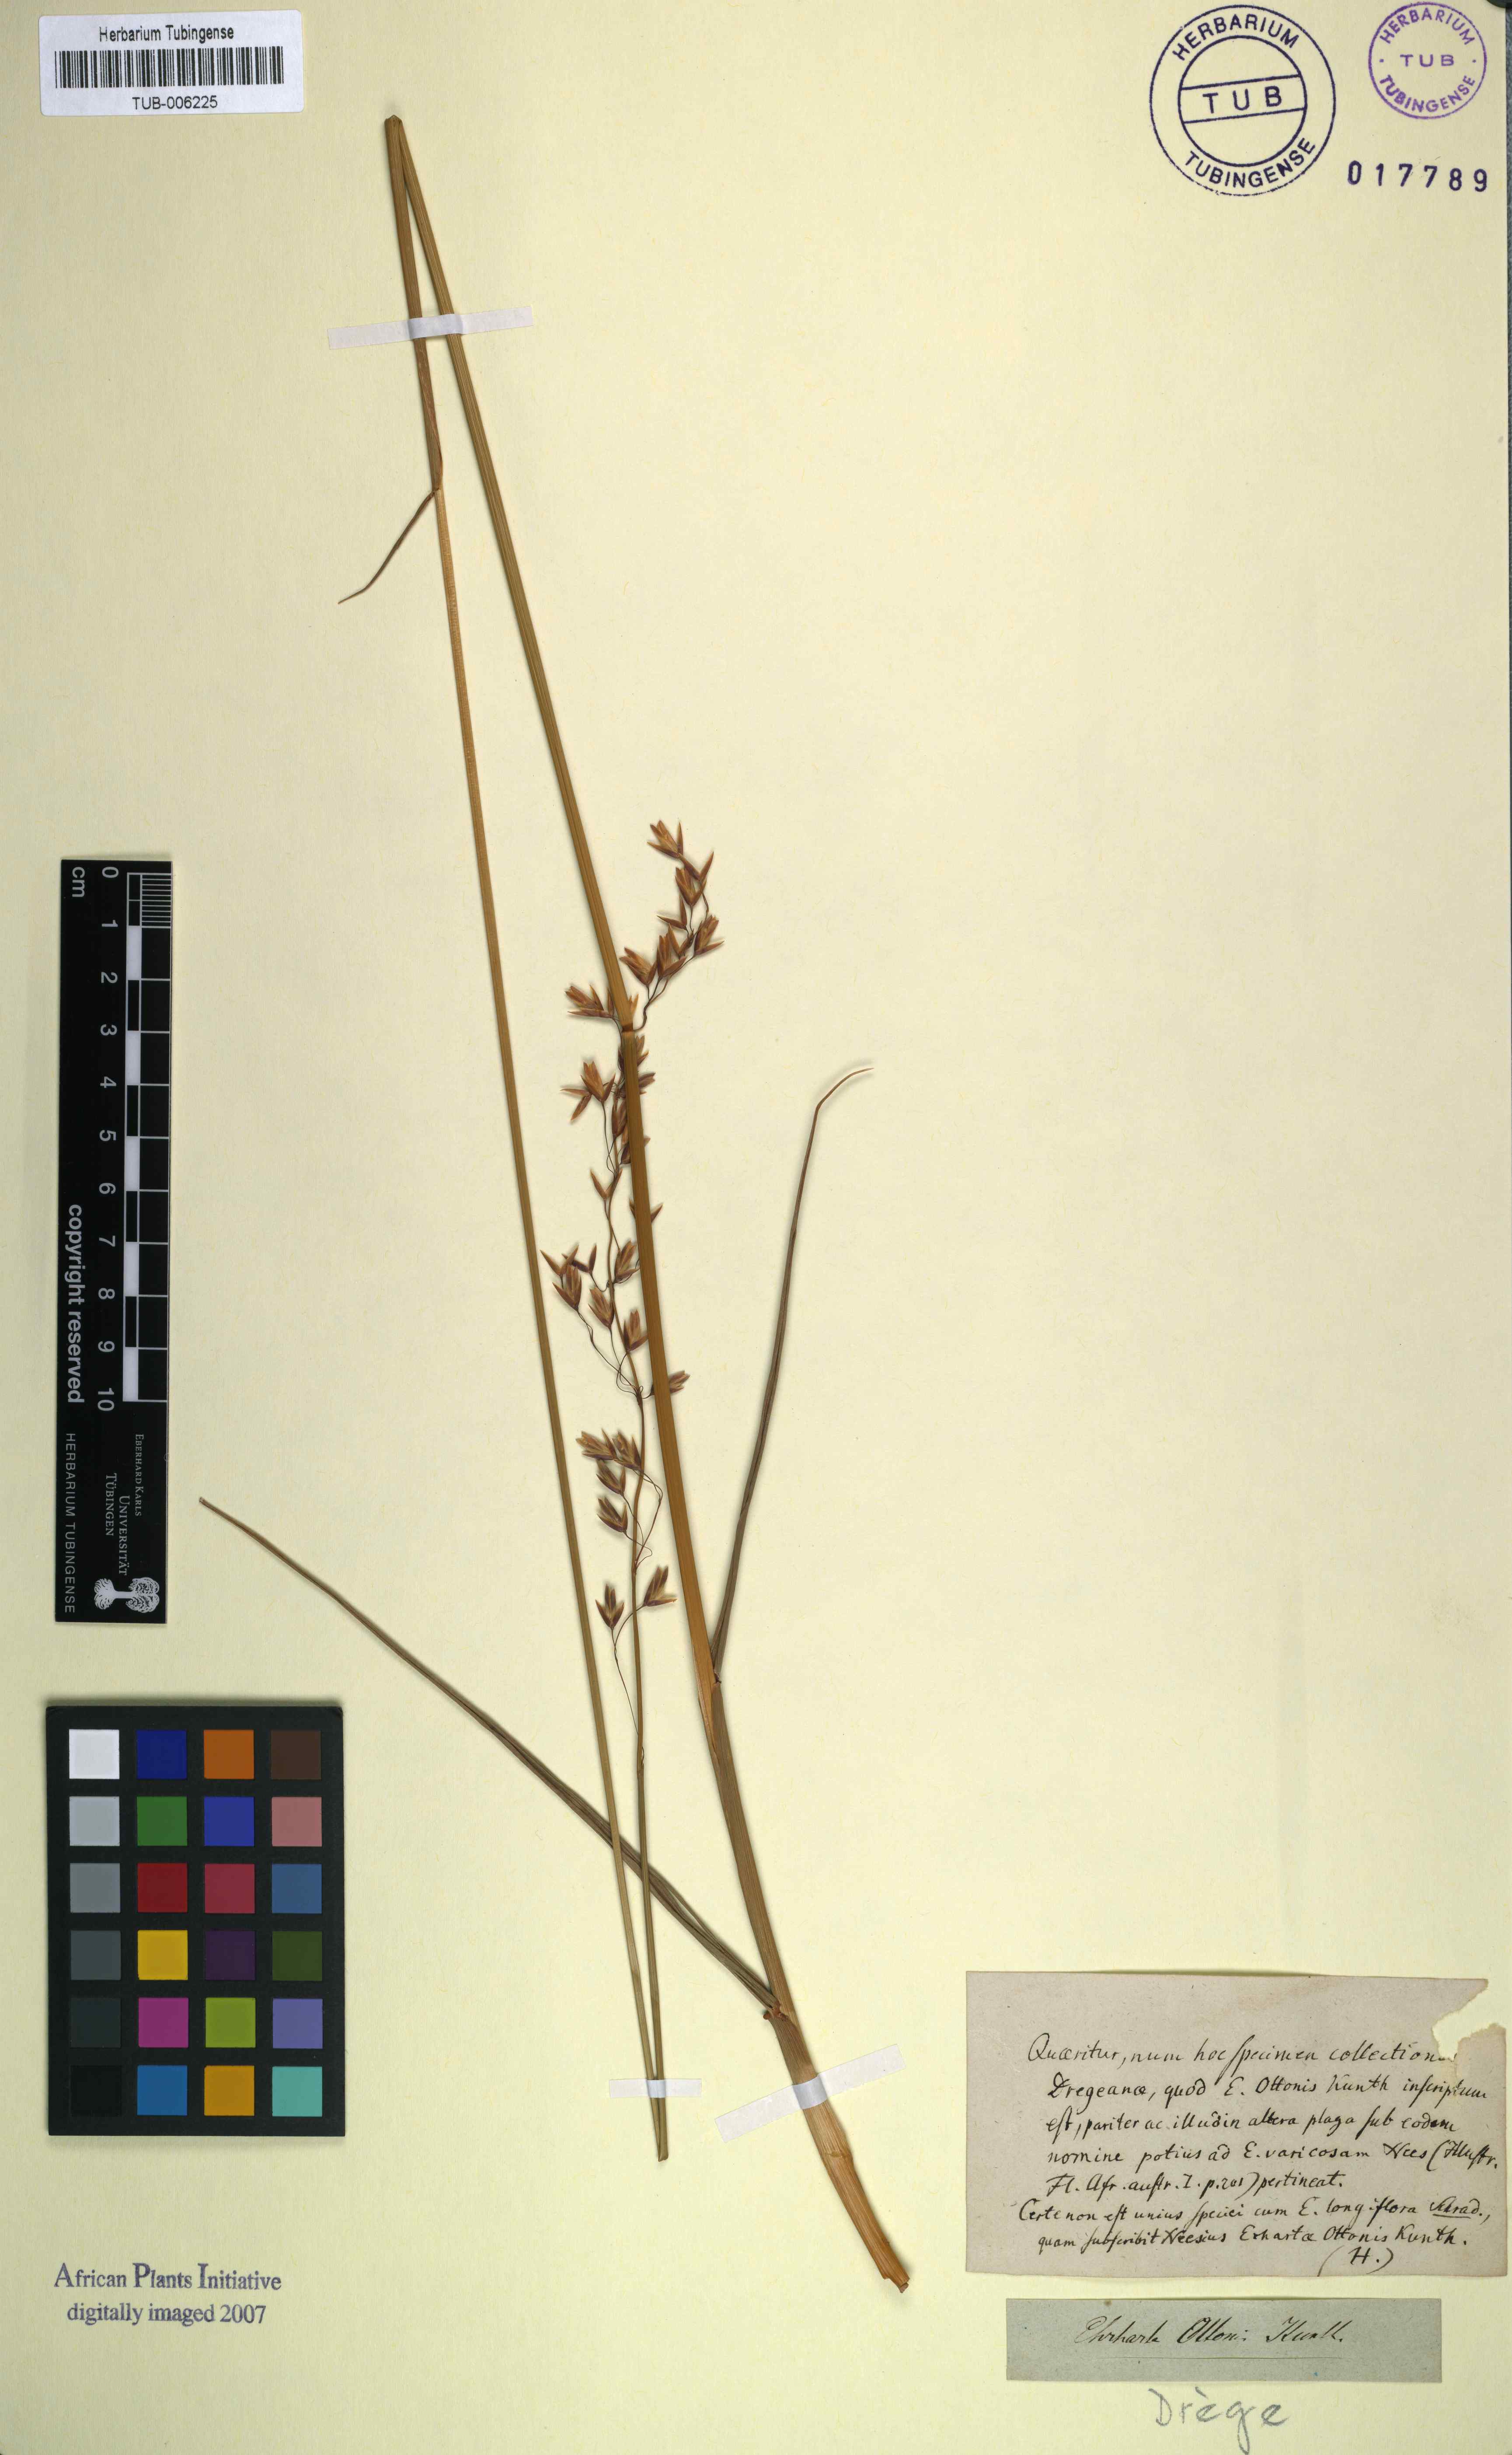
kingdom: Plantae
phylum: Tracheophyta
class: Liliopsida
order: Poales
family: Poaceae
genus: Ehrharta
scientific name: Ehrharta longifolia
